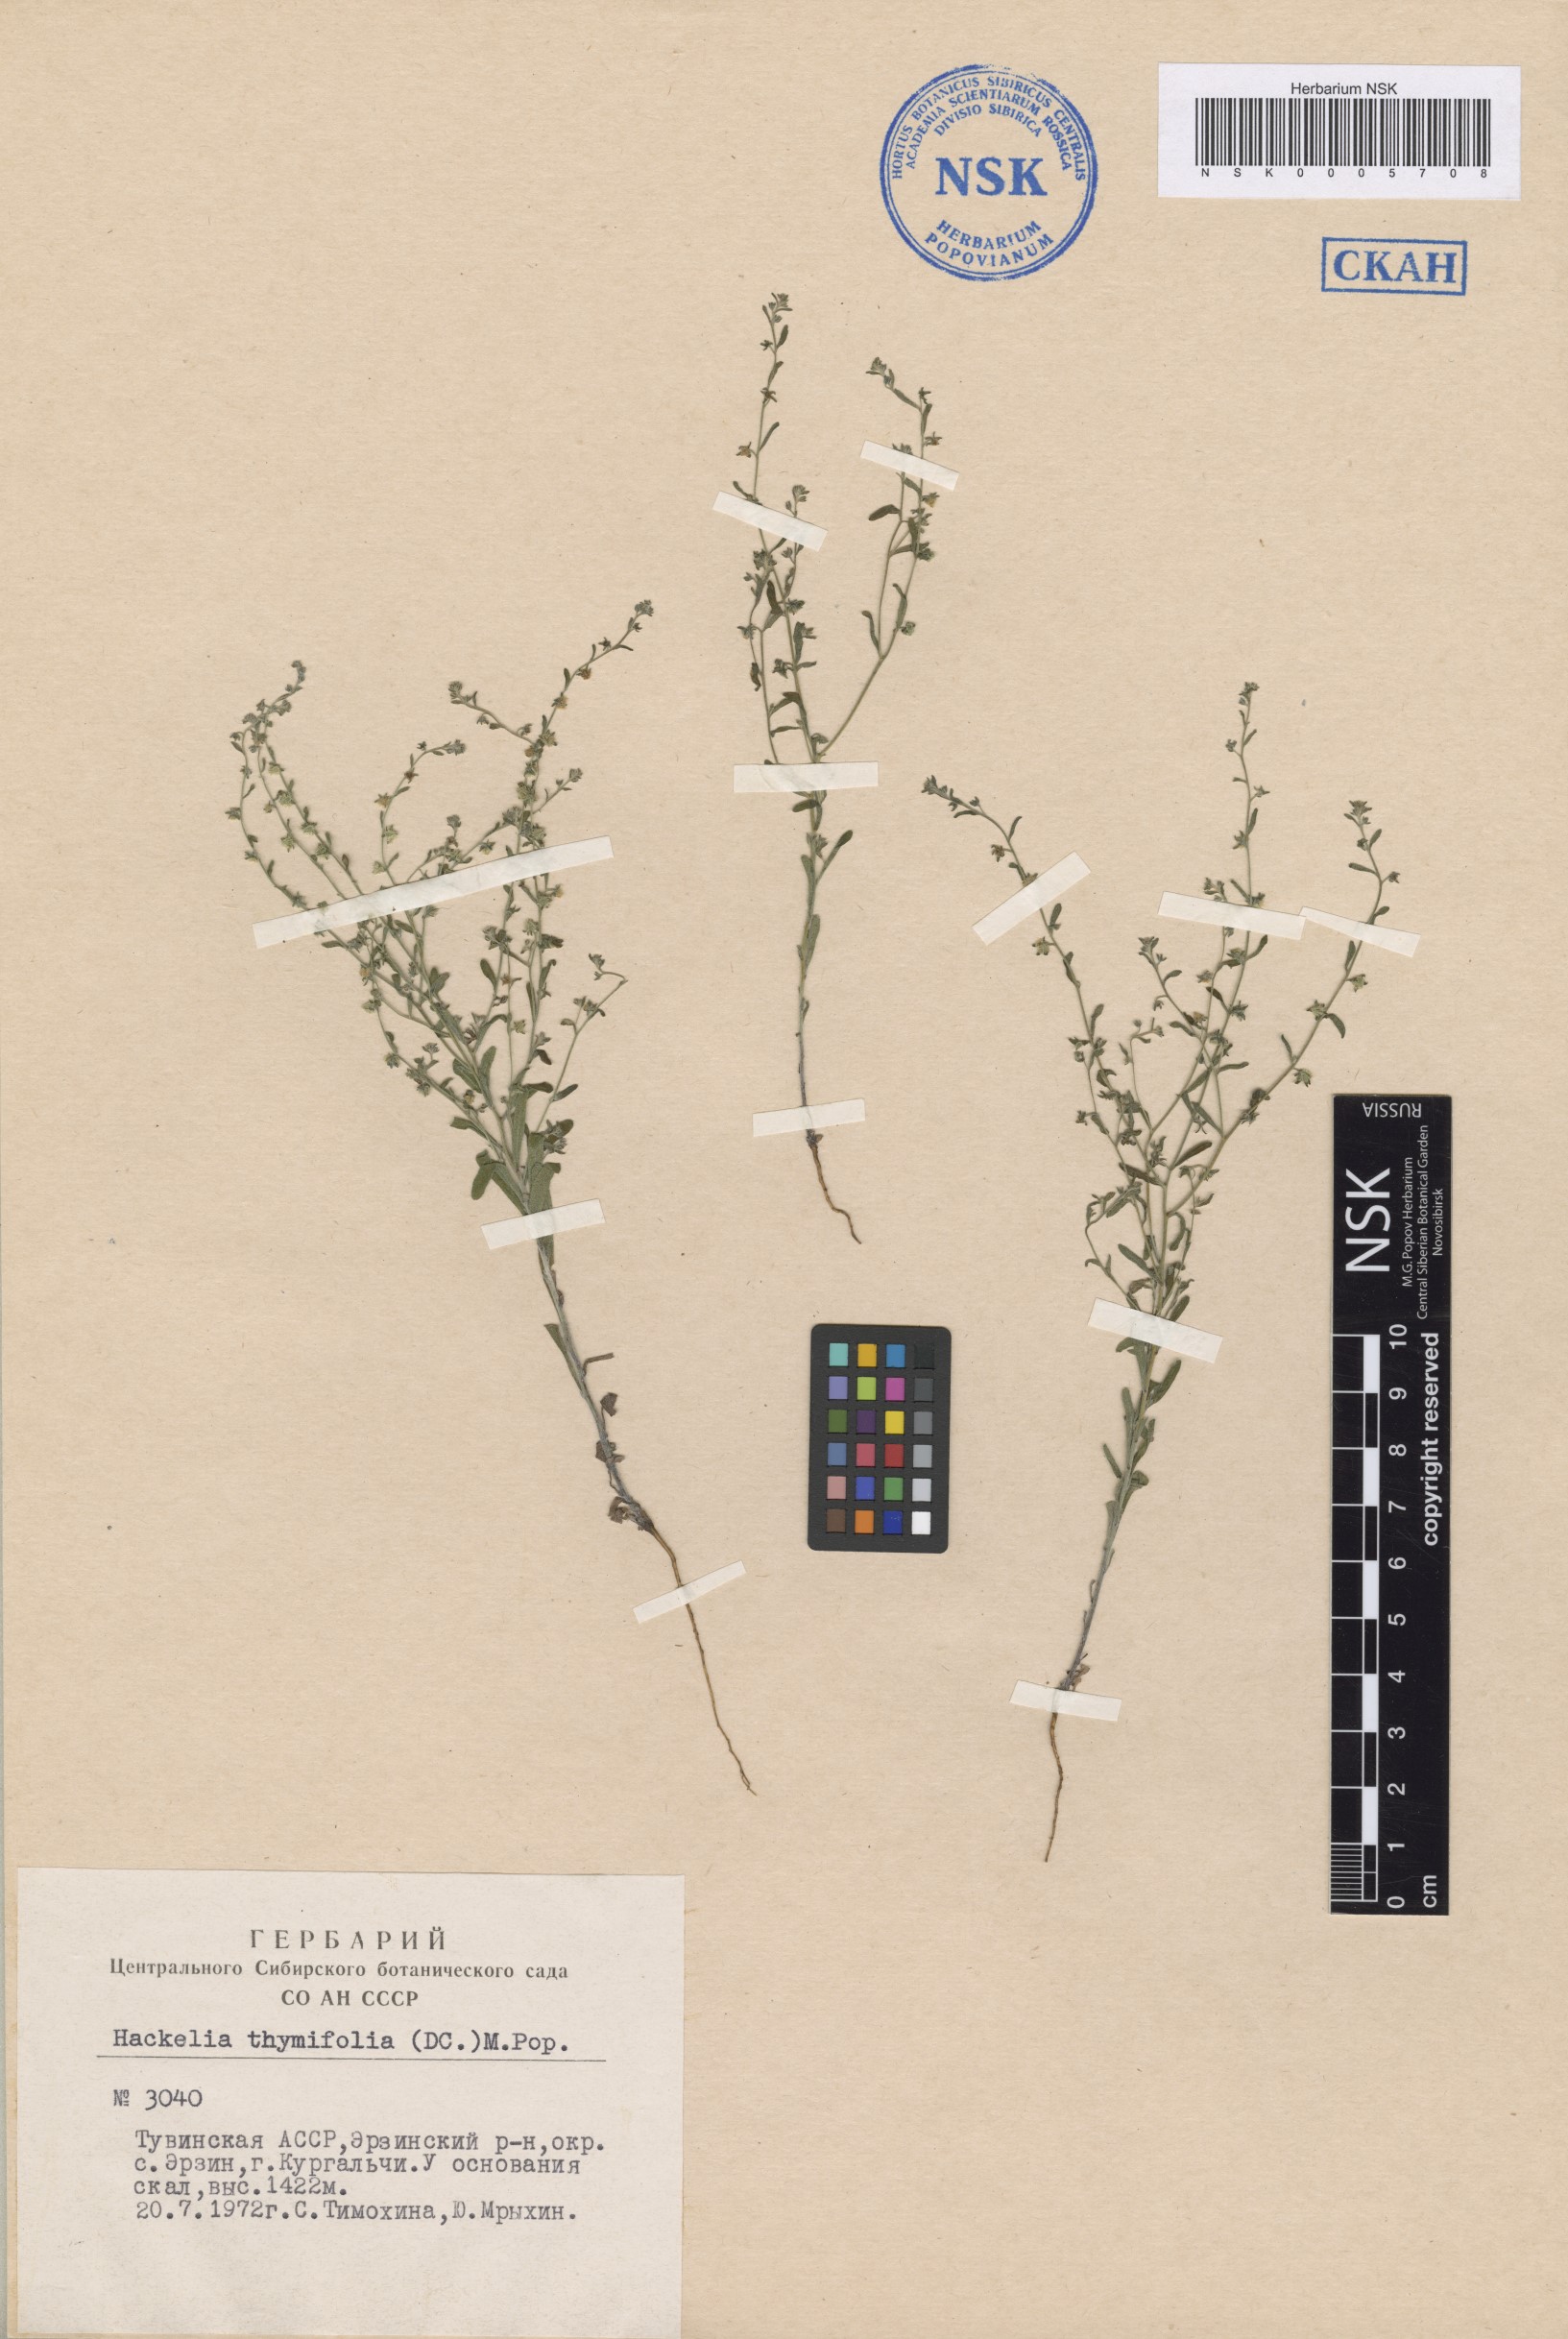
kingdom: Plantae
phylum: Tracheophyta
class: Magnoliopsida
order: Boraginales
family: Boraginaceae
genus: Eritrichium
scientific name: Eritrichium thymifolium
